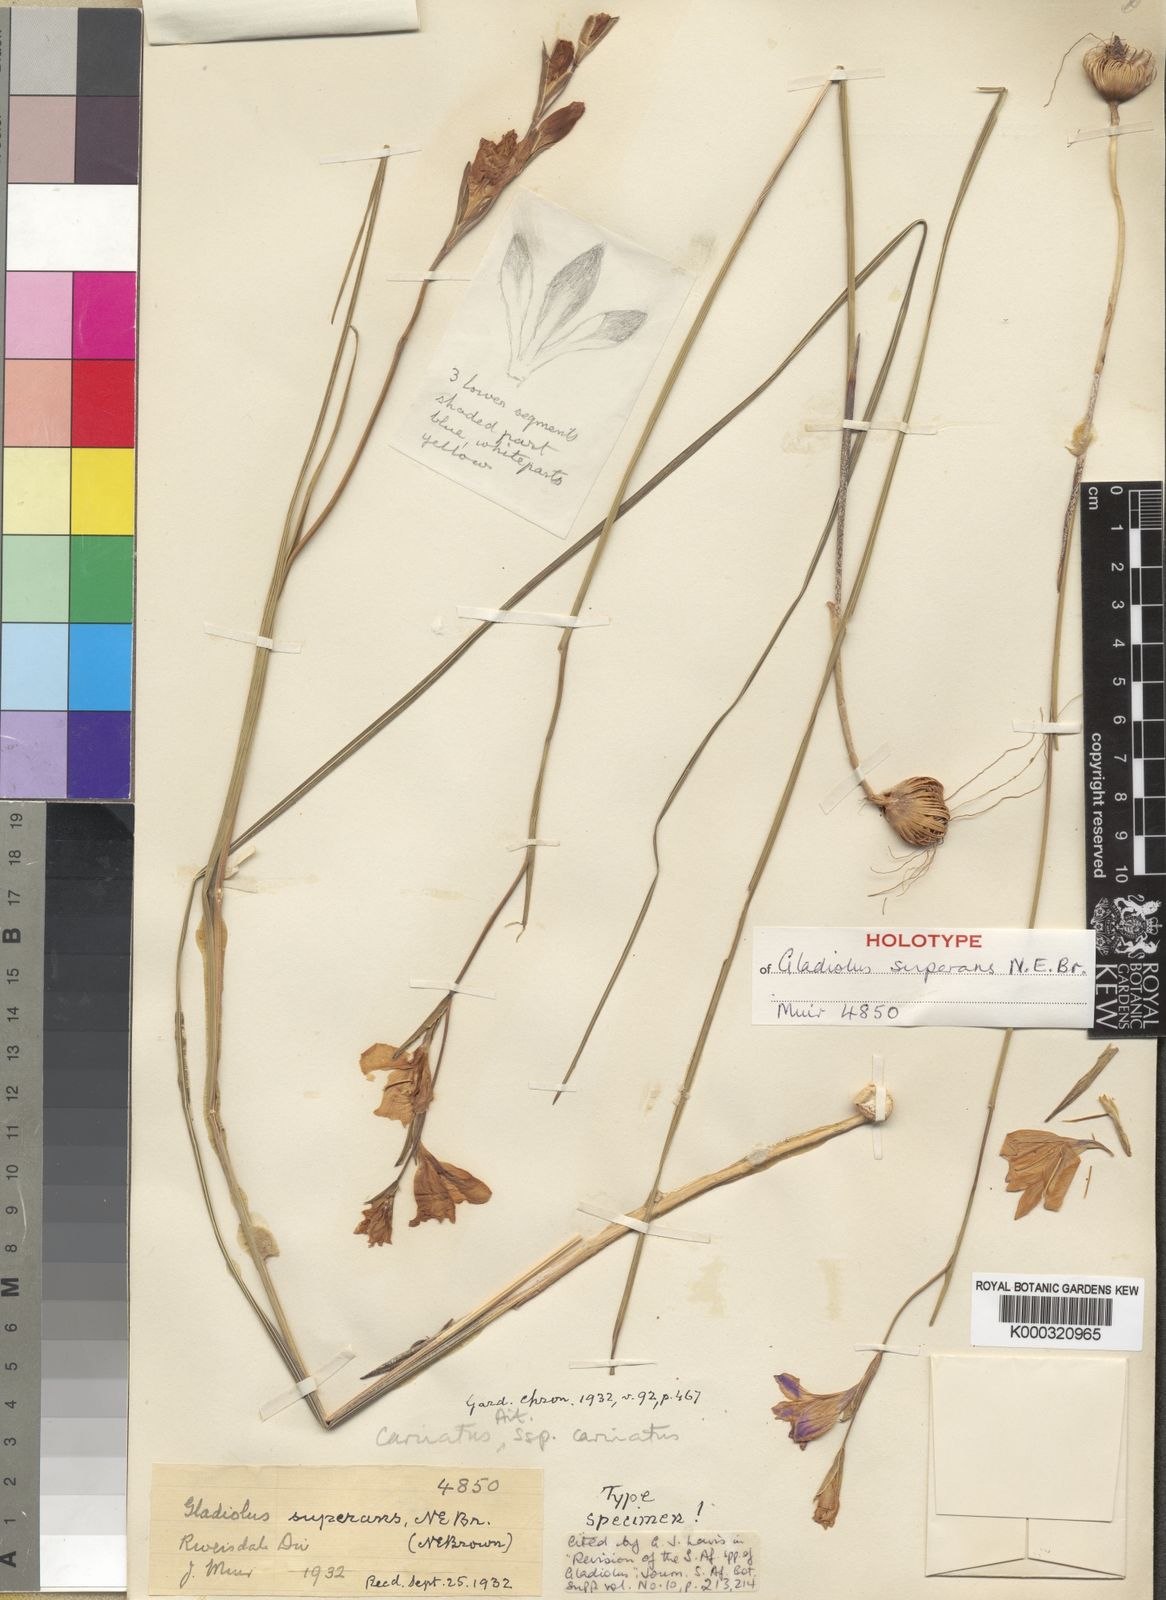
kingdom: Plantae
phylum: Tracheophyta
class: Liliopsida
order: Asparagales
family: Iridaceae
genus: Gladiolus
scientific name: Gladiolus
